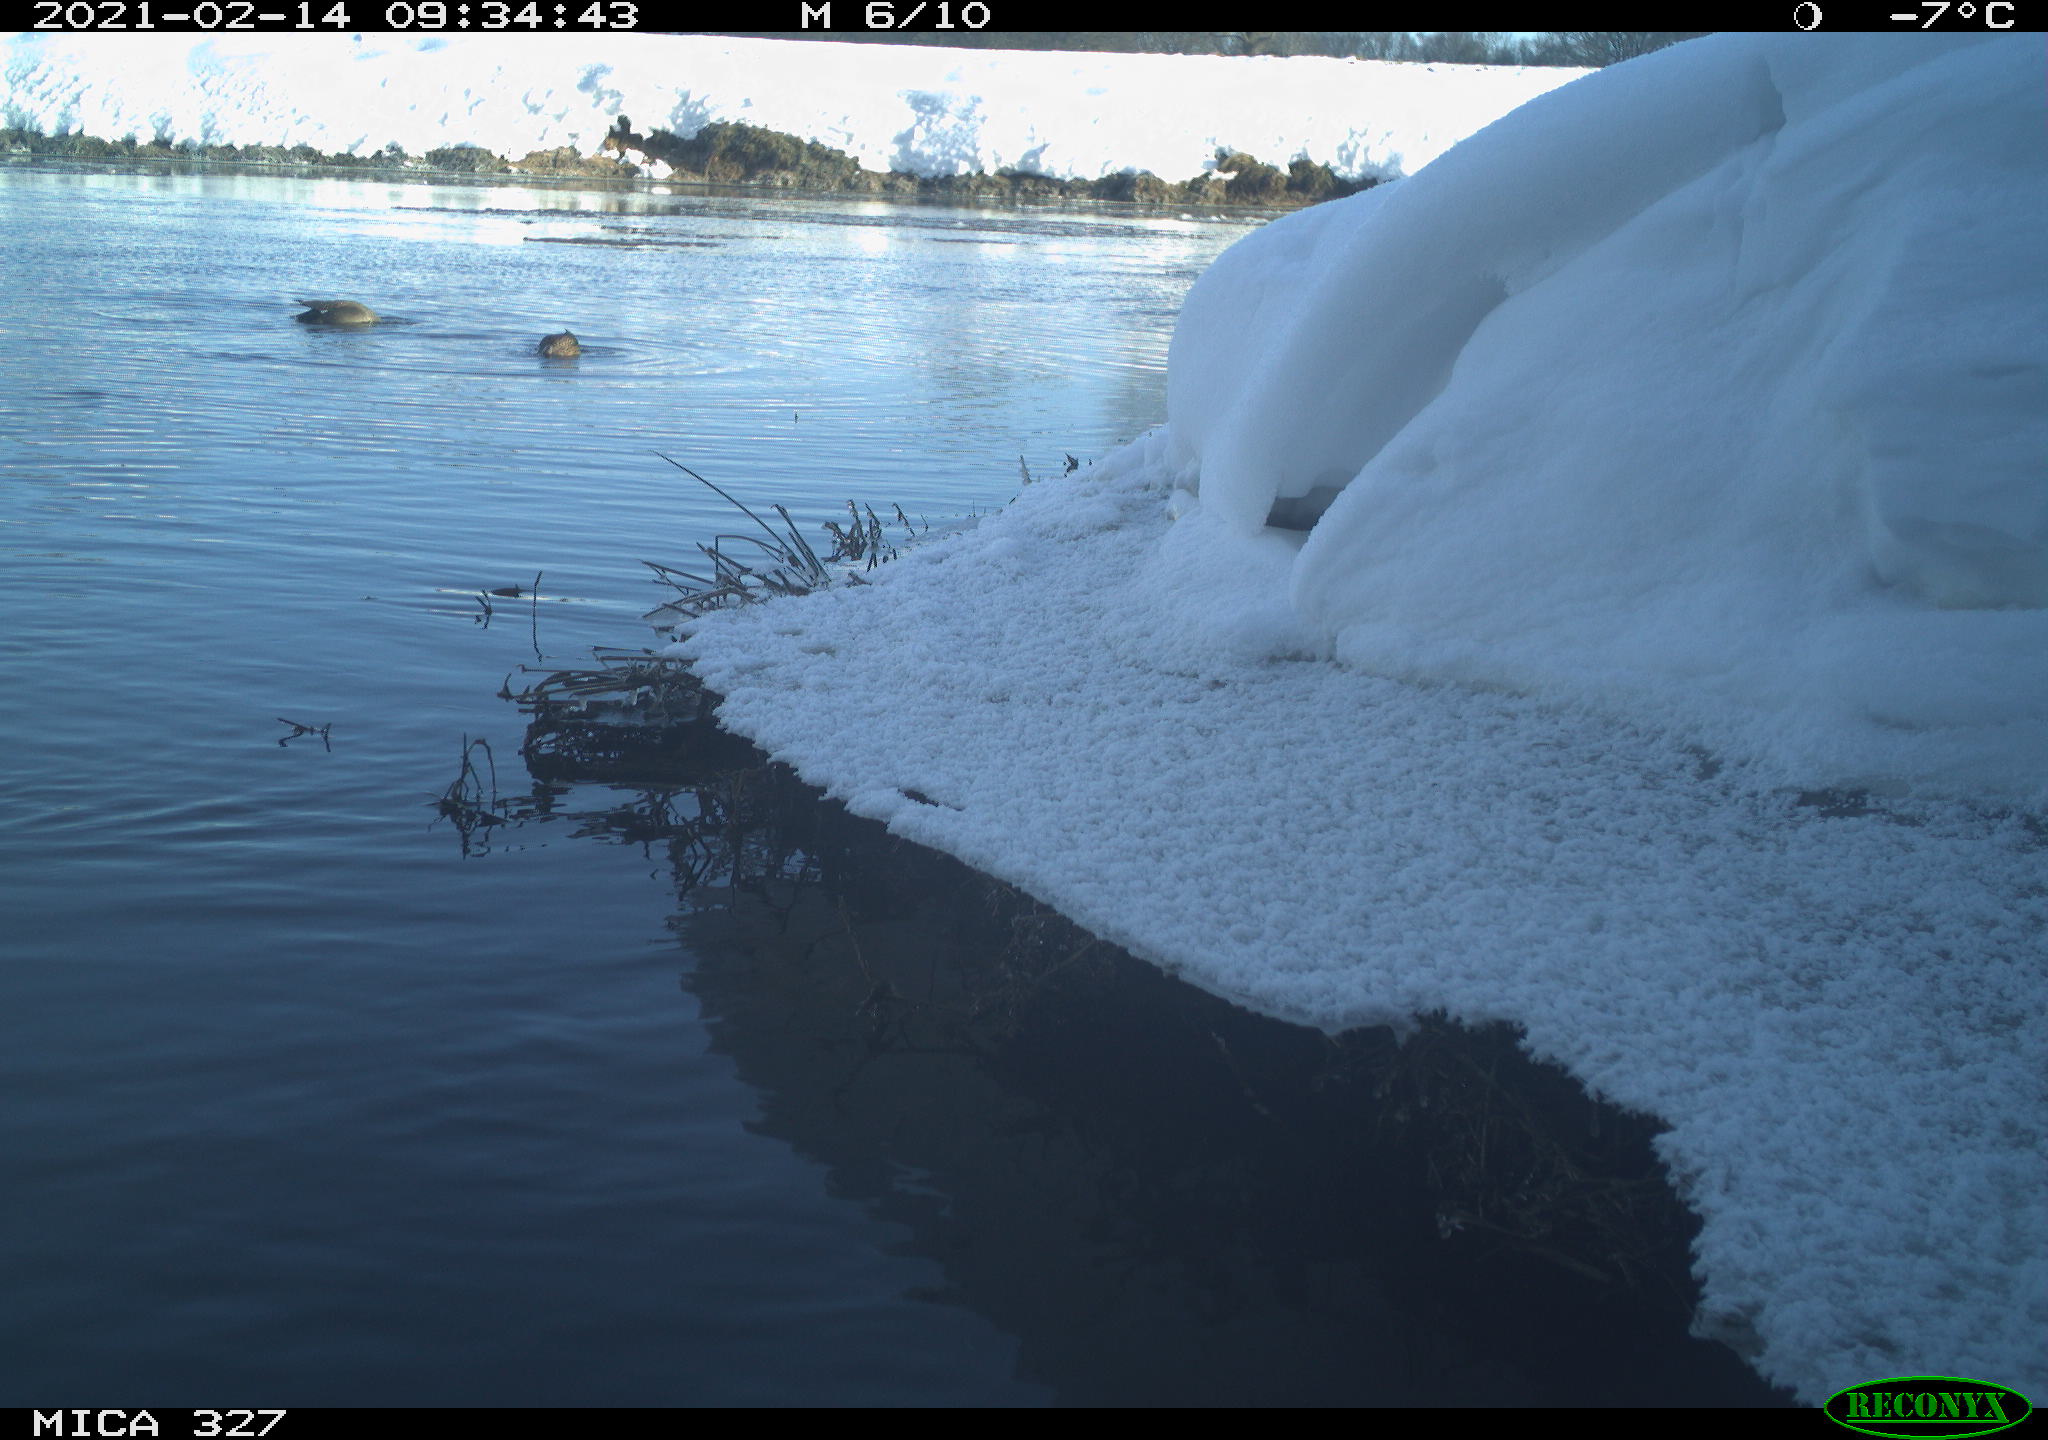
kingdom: Animalia
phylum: Chordata
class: Aves
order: Gruiformes
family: Rallidae
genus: Fulica
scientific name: Fulica atra
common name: Eurasian coot
